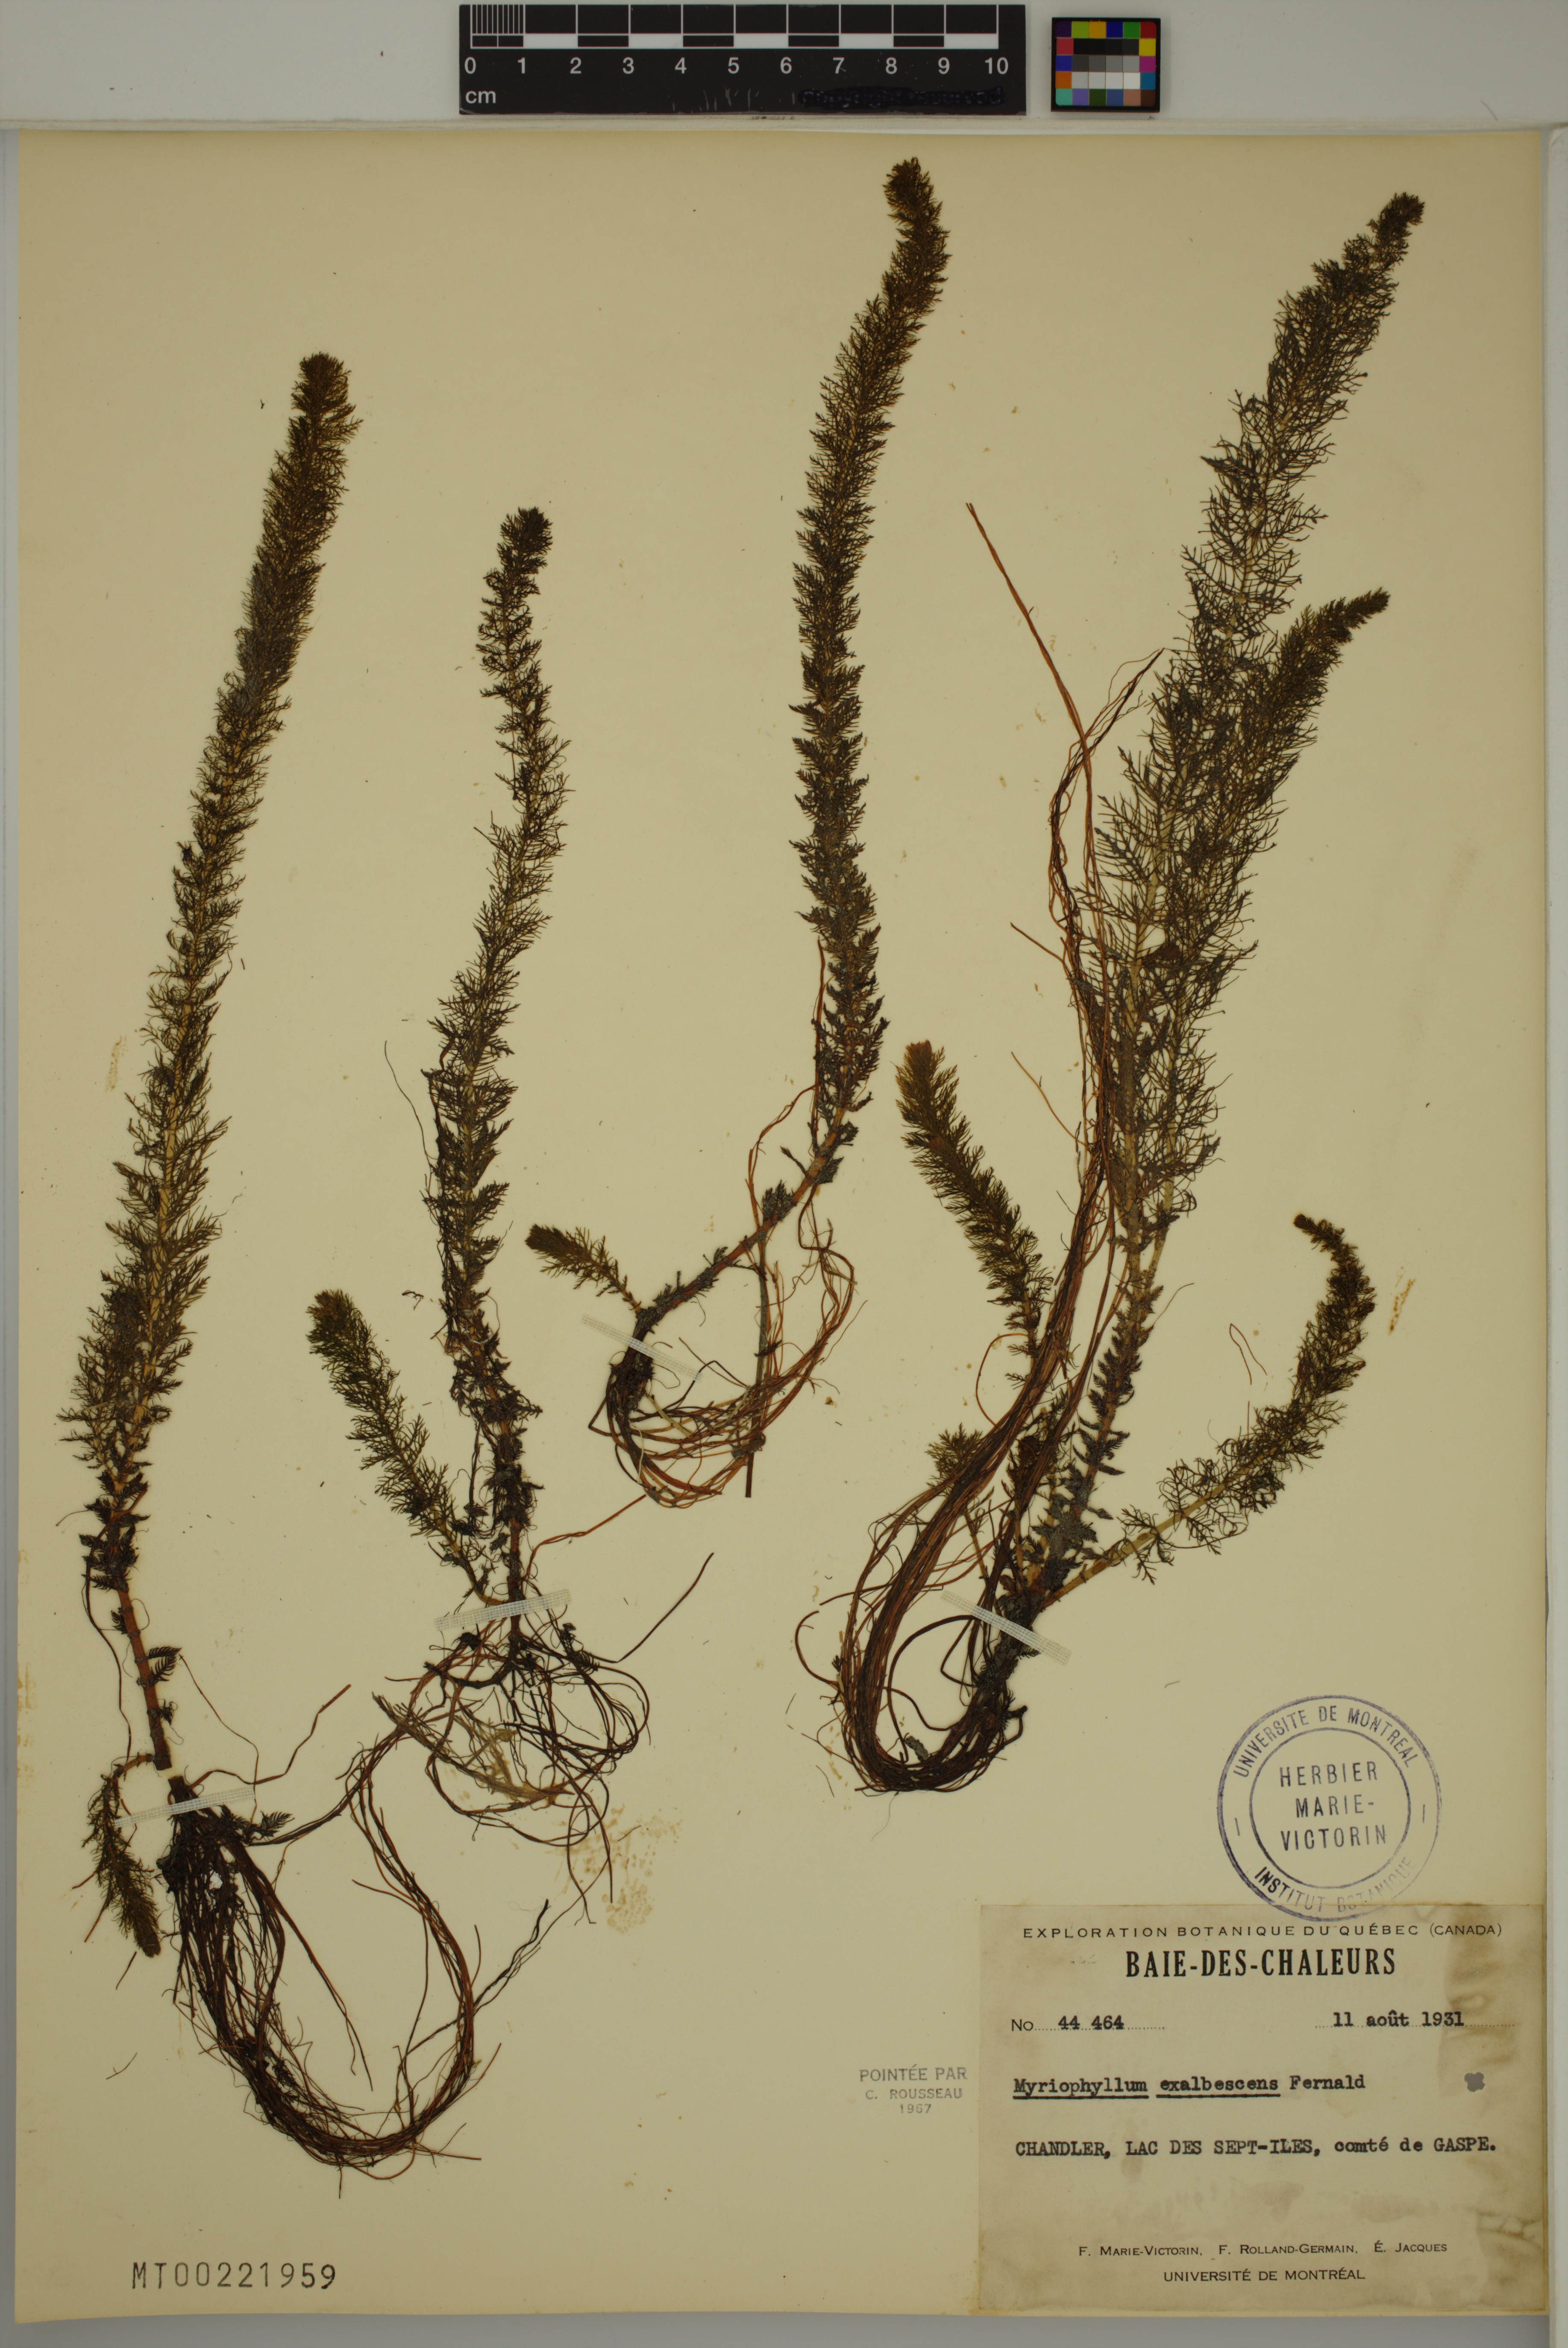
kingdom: Plantae
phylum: Tracheophyta
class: Magnoliopsida
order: Saxifragales
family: Haloragaceae
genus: Myriophyllum
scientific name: Myriophyllum sibiricum
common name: Siberian water-milfoil
